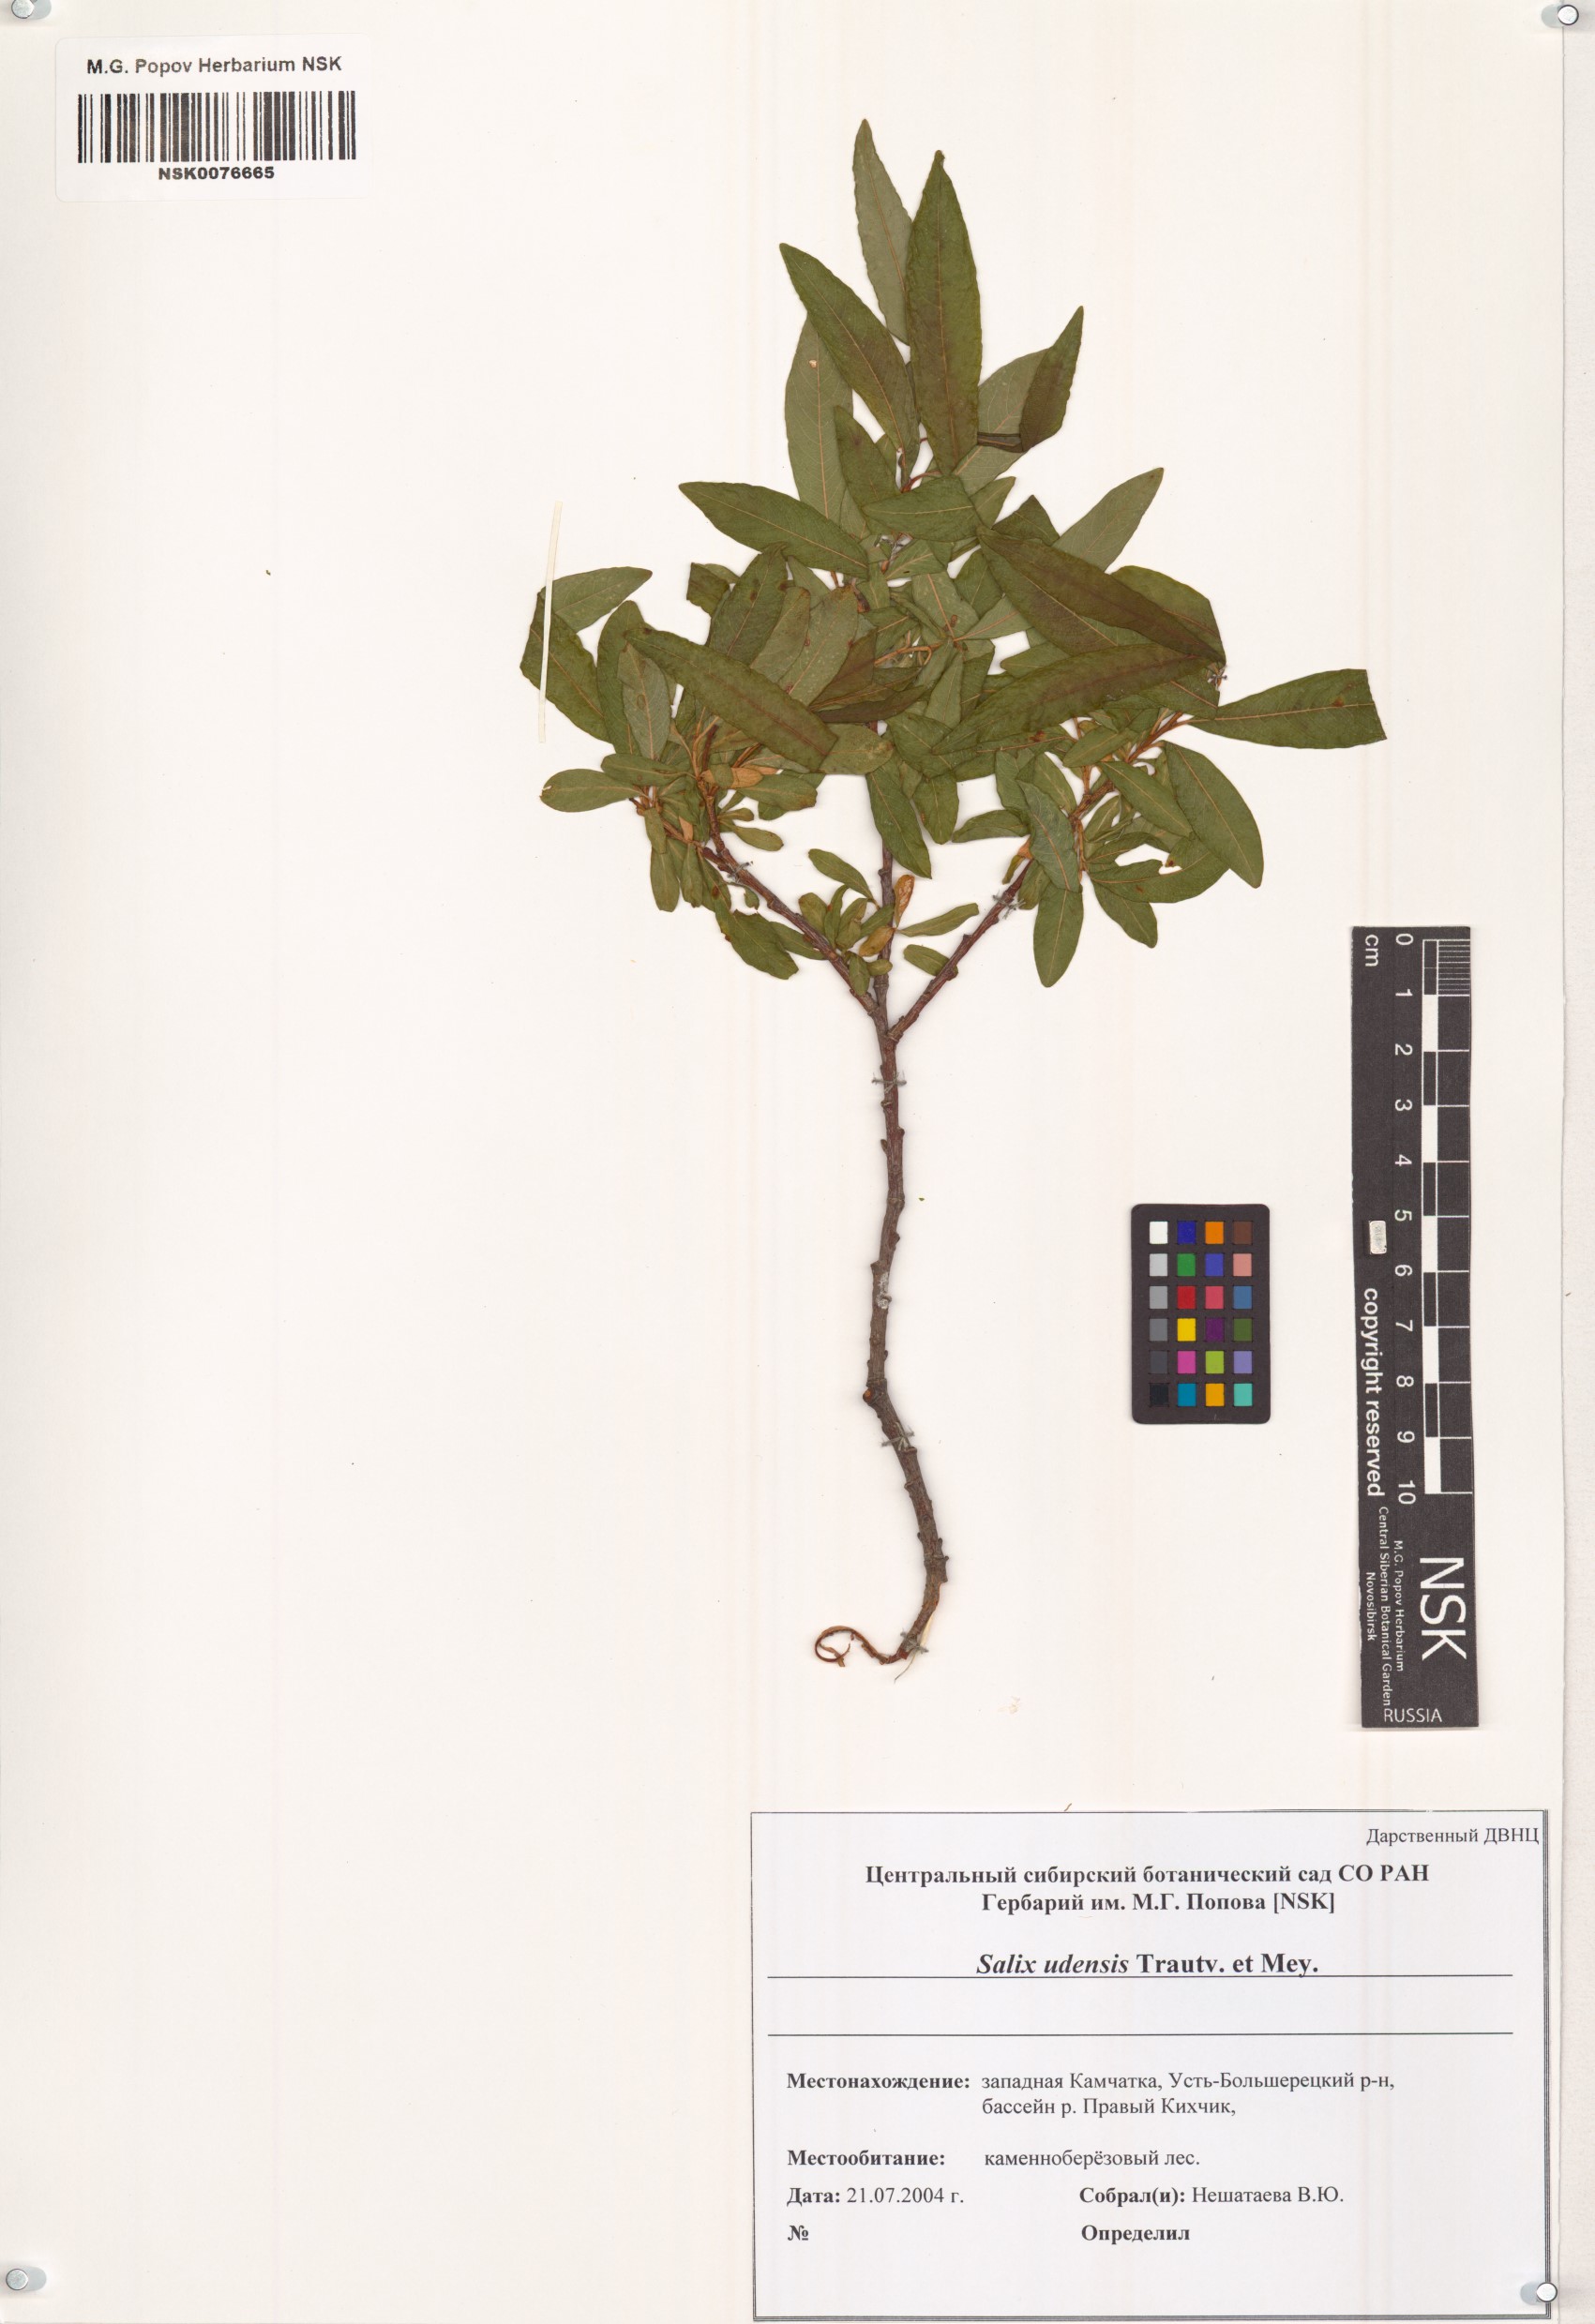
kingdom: Plantae
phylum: Tracheophyta
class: Magnoliopsida
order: Malpighiales
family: Salicaceae
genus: Salix
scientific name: Salix udensis
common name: Sachalin willow
